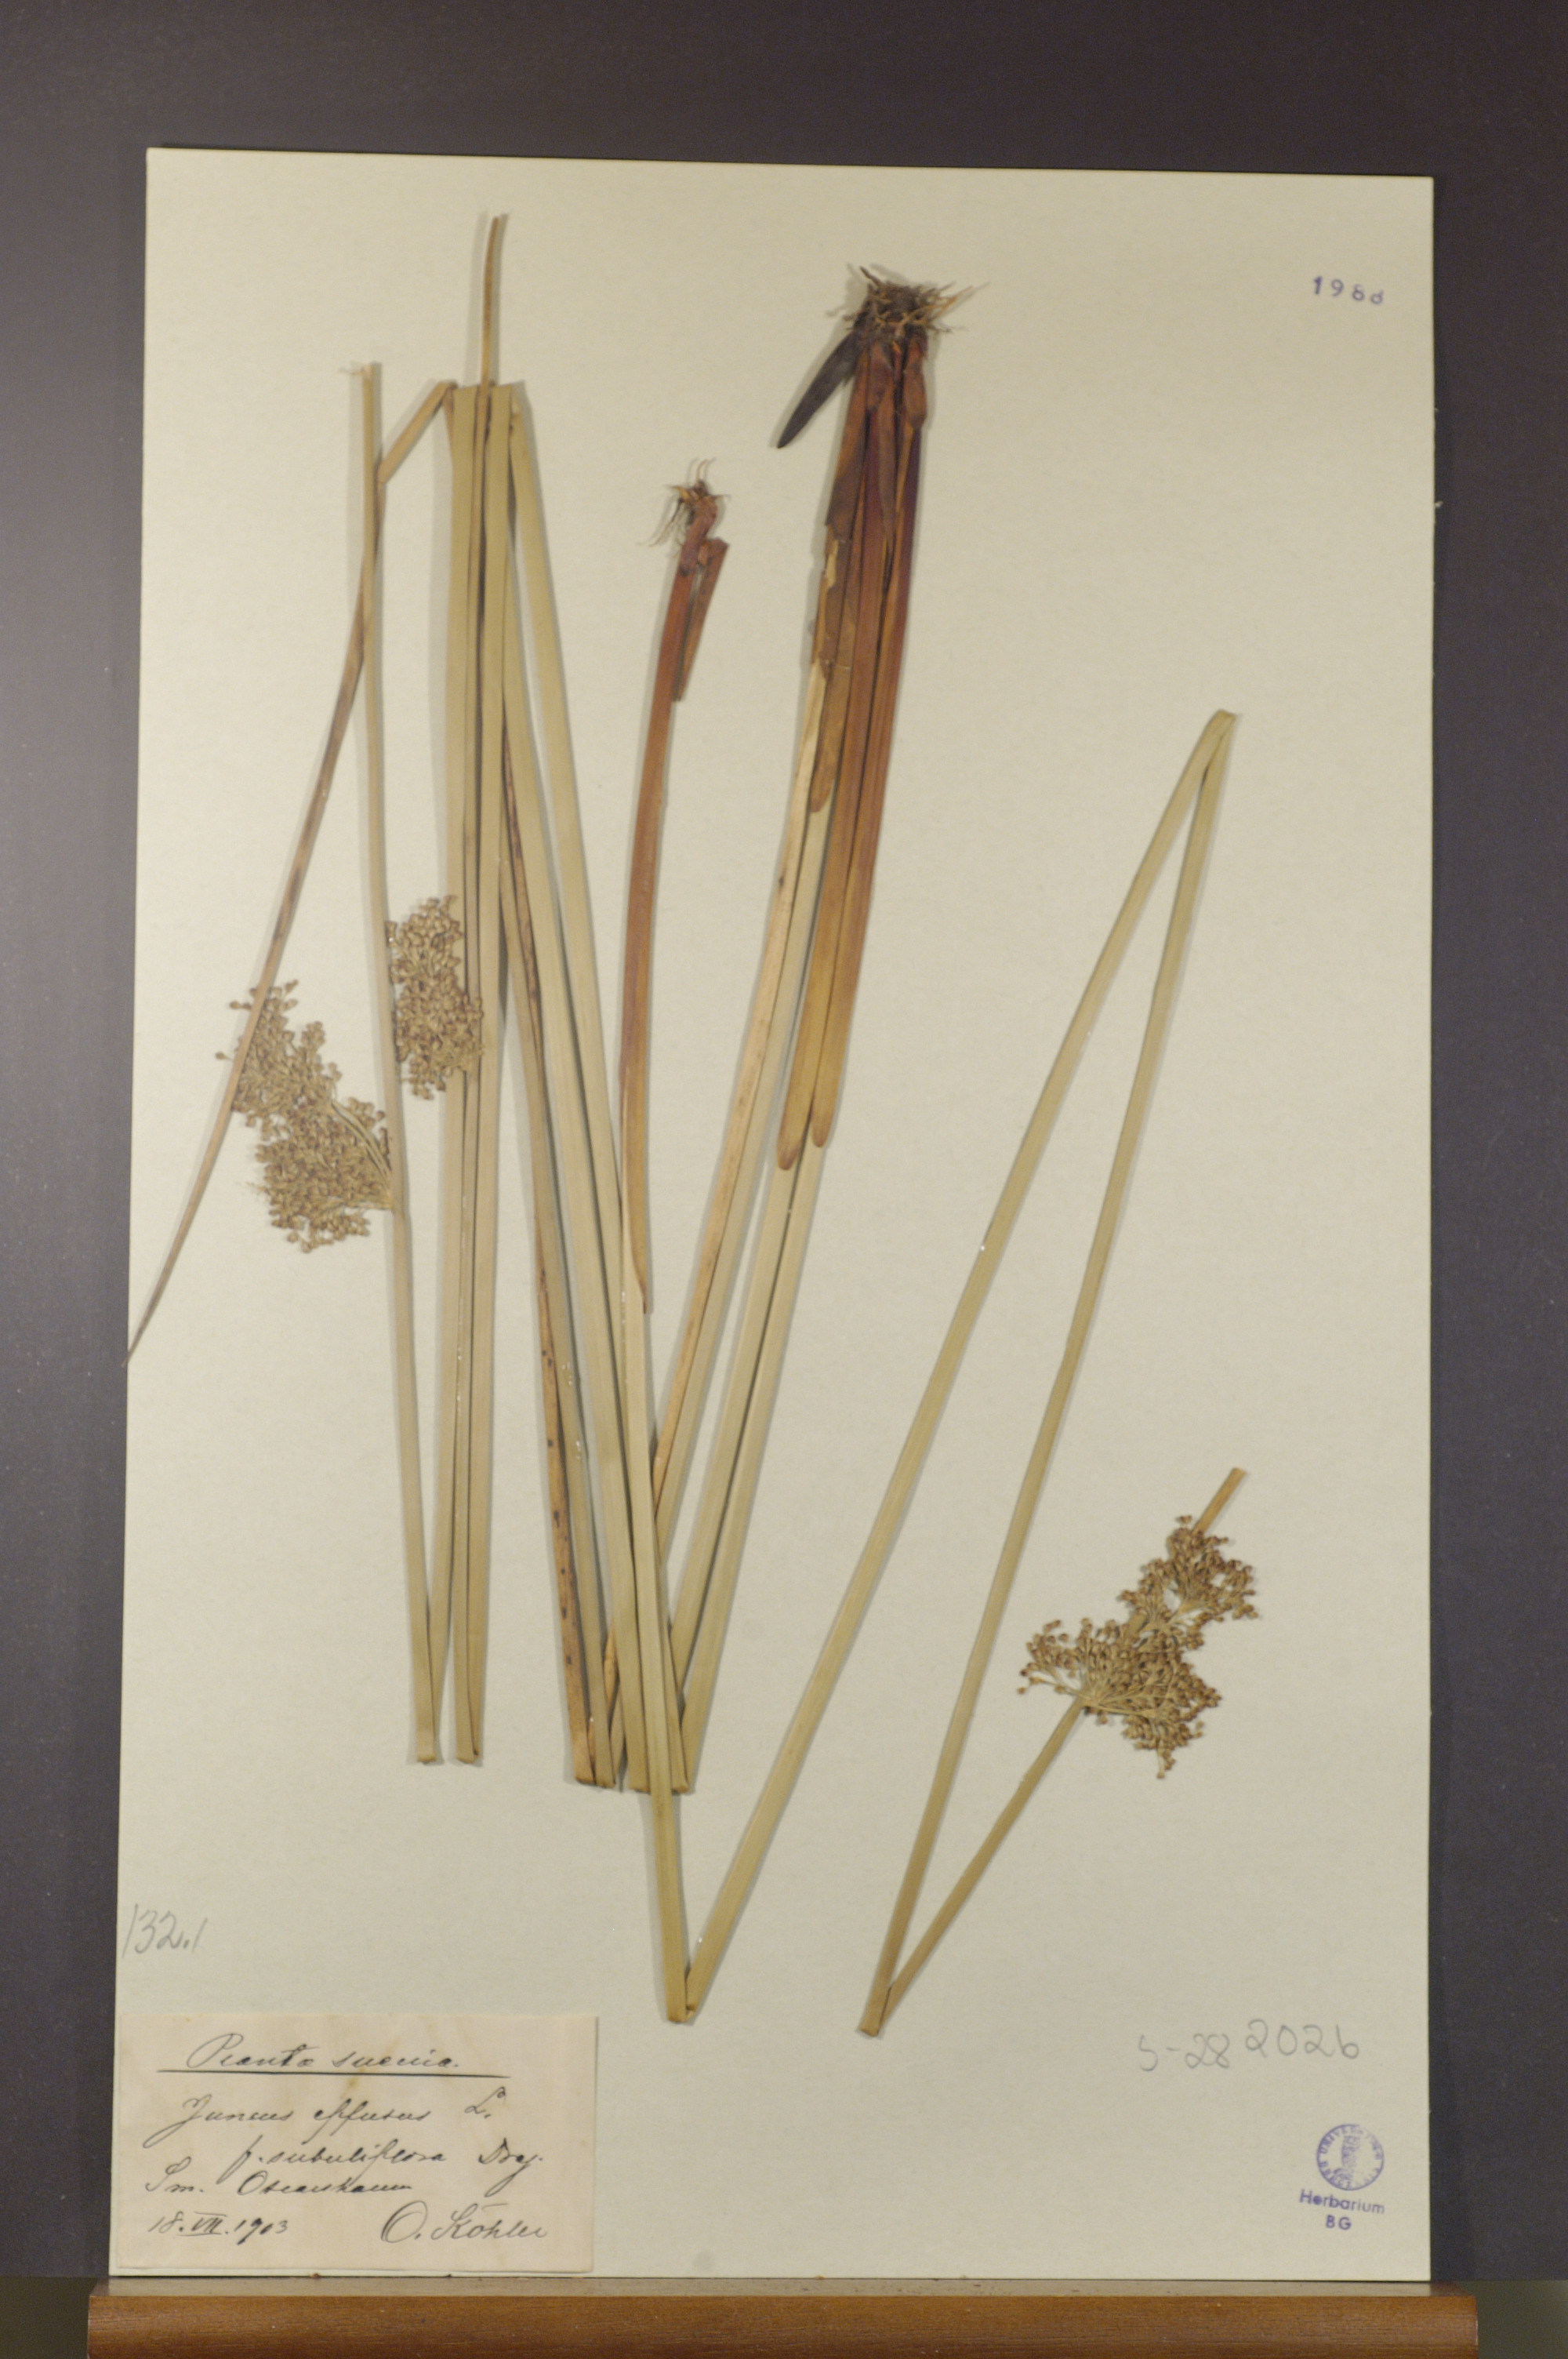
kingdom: Plantae
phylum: Tracheophyta
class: Liliopsida
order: Poales
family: Juncaceae
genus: Juncus
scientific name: Juncus effusus
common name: Soft rush
